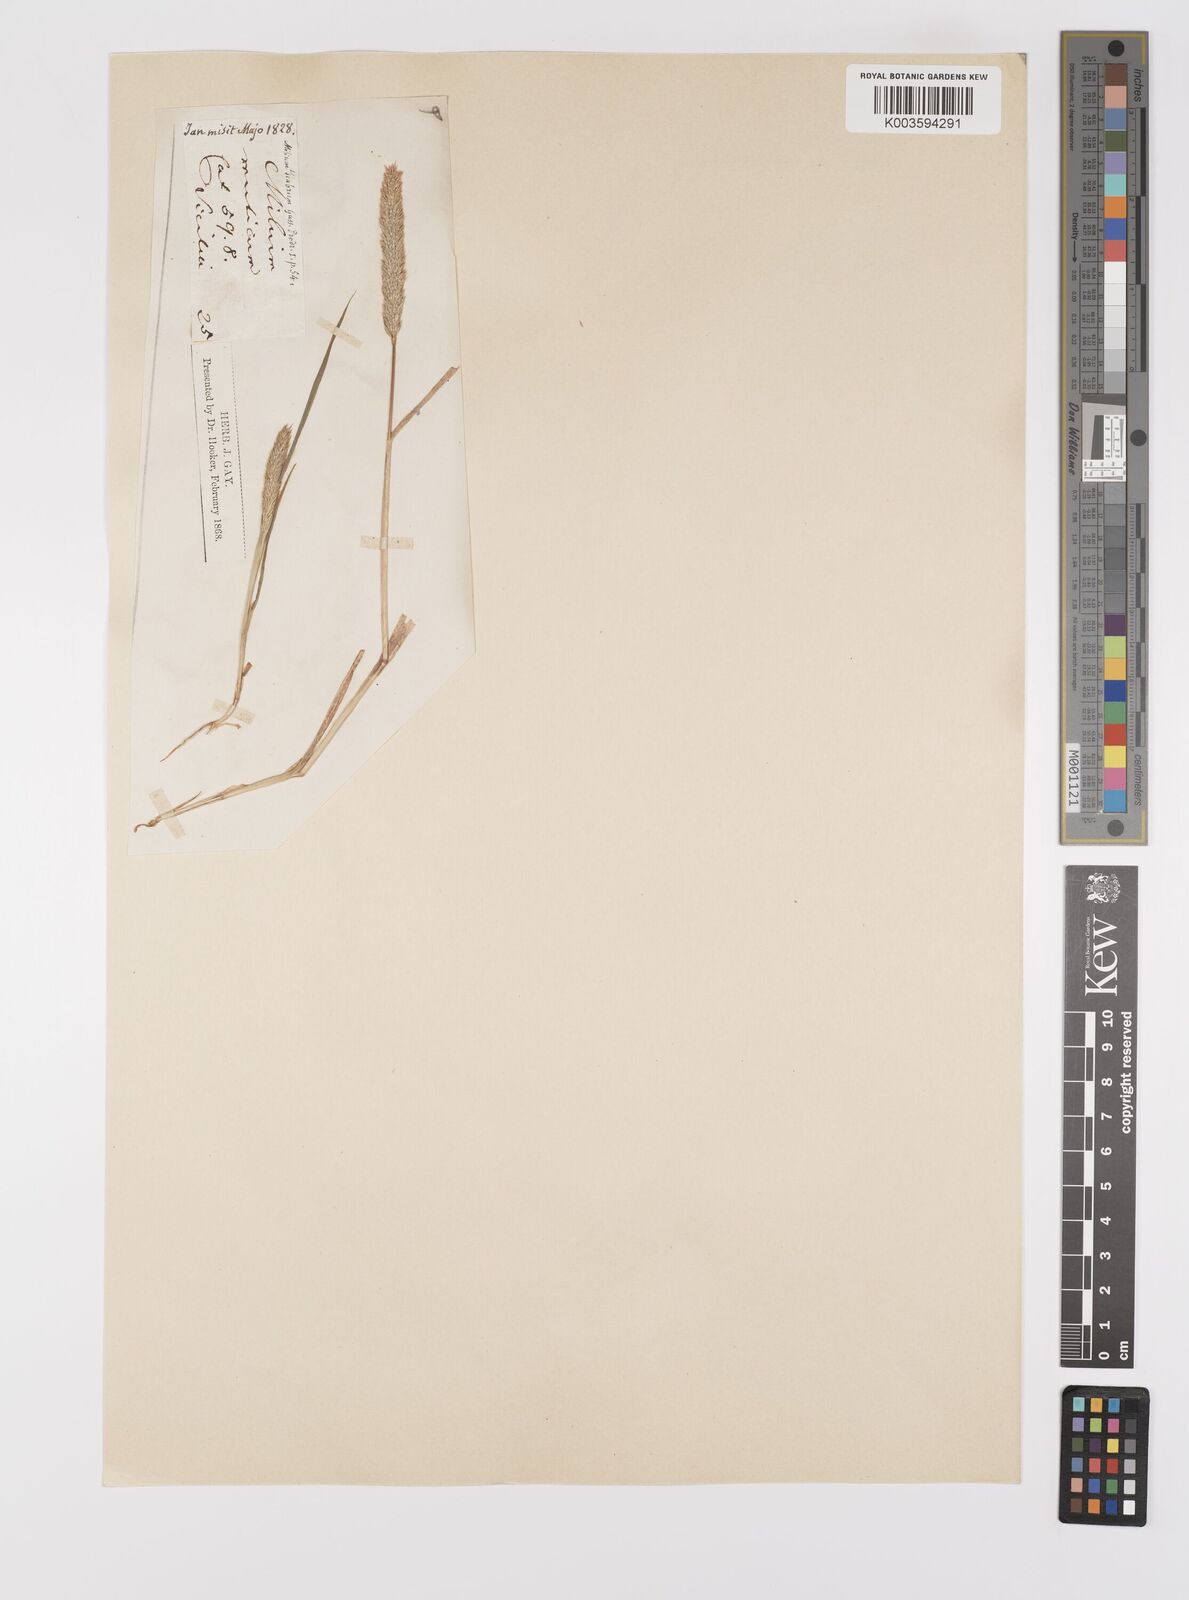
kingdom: Plantae
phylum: Tracheophyta
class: Liliopsida
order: Poales
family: Poaceae
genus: Gastridium
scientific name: Gastridium ventricosum
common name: Nit-grass
